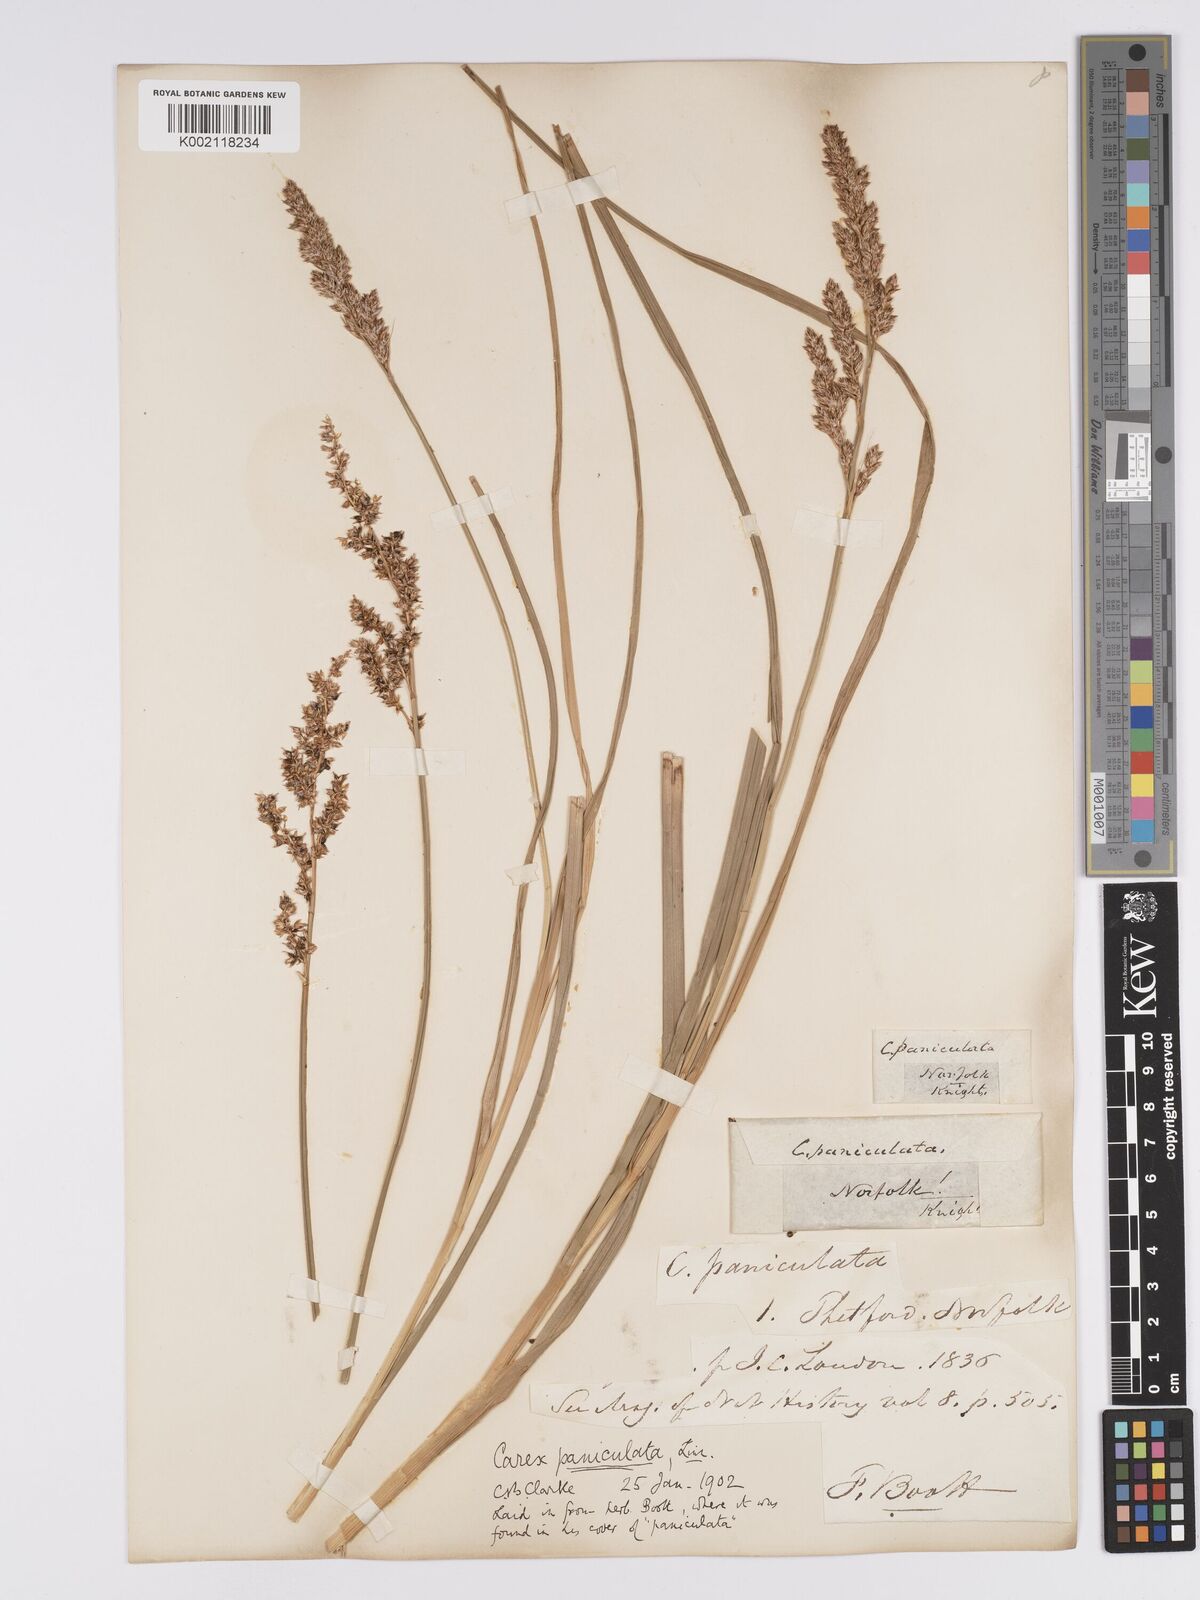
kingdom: Plantae
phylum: Tracheophyta
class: Liliopsida
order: Poales
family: Cyperaceae
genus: Carex
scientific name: Carex paniculata
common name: Greater tussock-sedge
